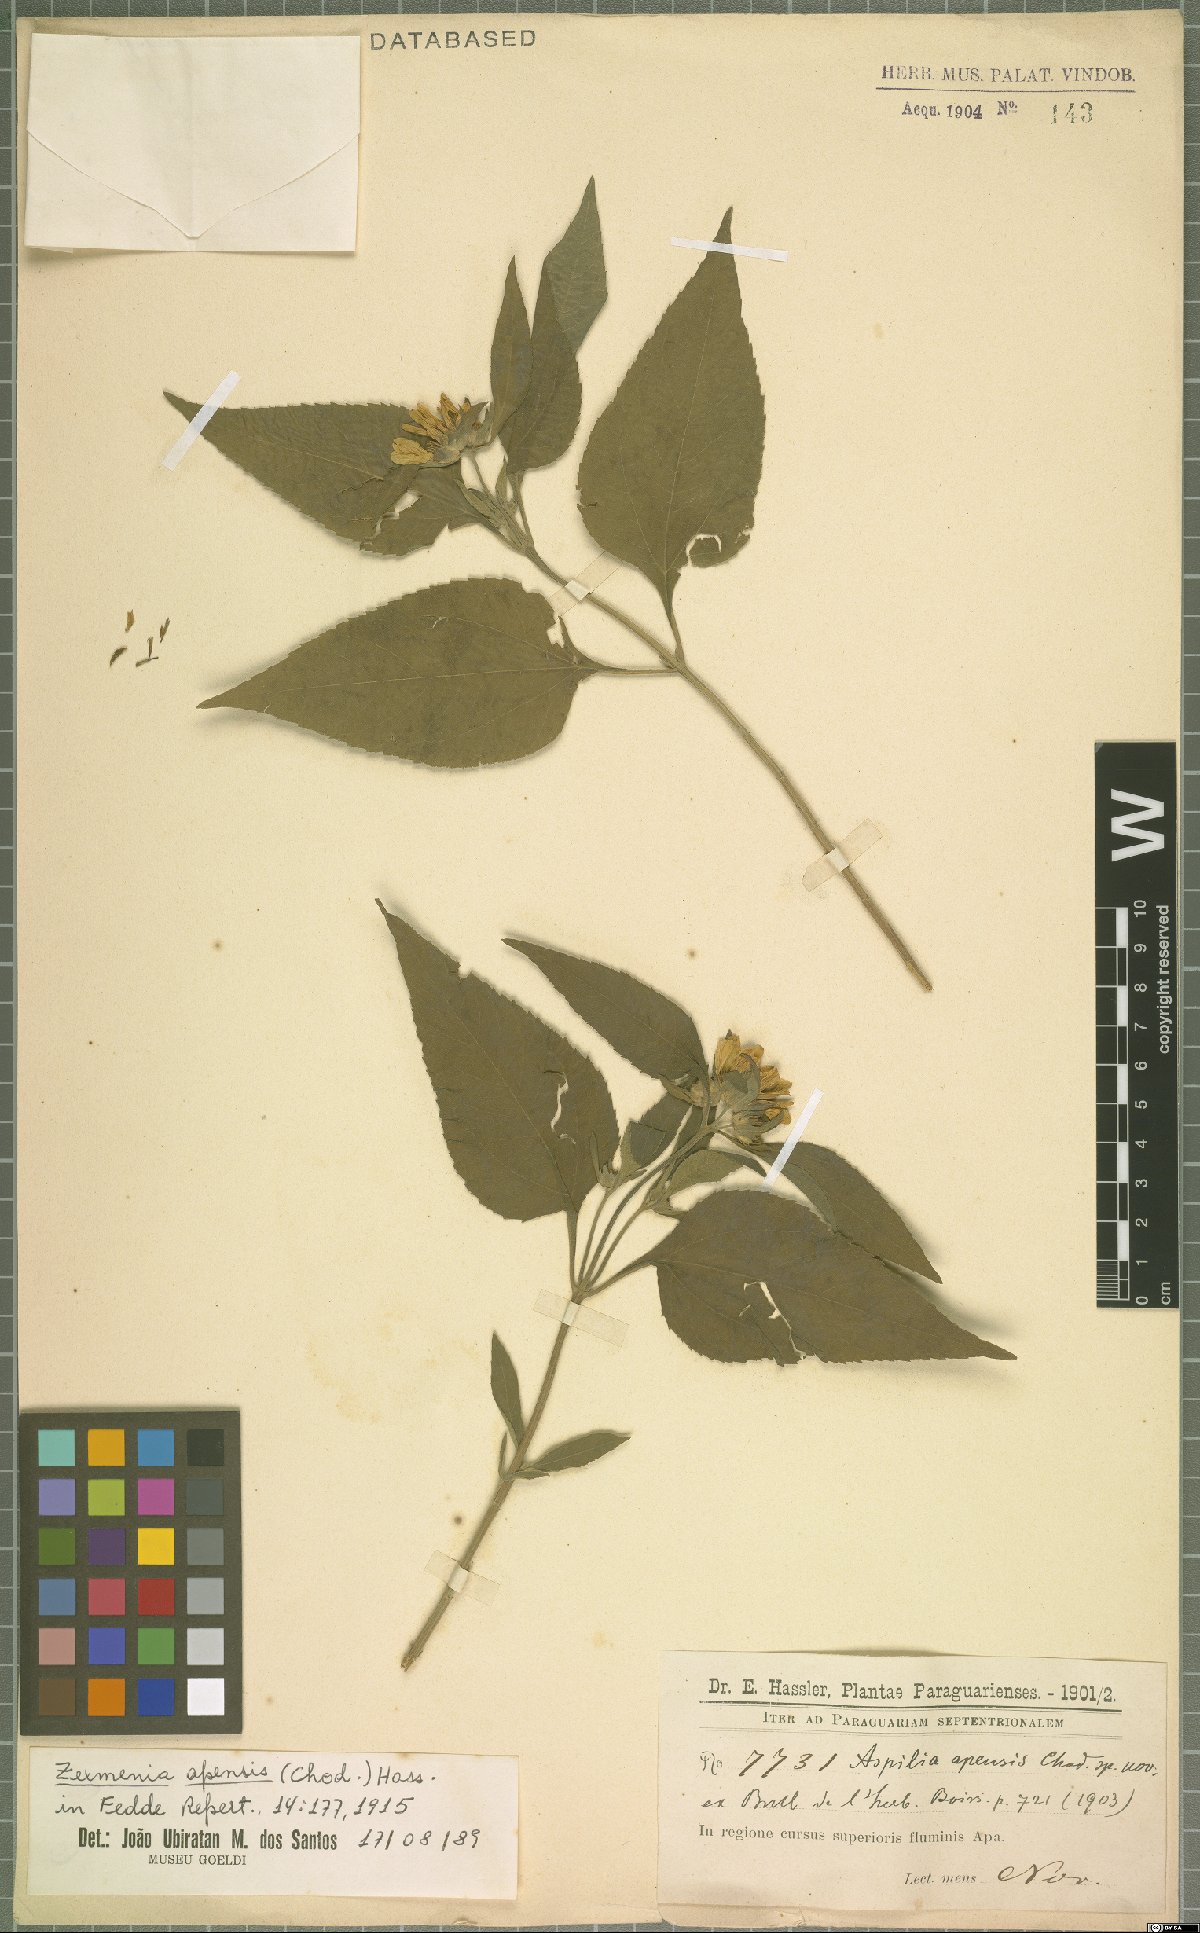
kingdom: Plantae
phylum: Tracheophyta
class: Magnoliopsida
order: Asterales
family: Asteraceae
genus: Dimerostemma
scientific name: Dimerostemma apense
